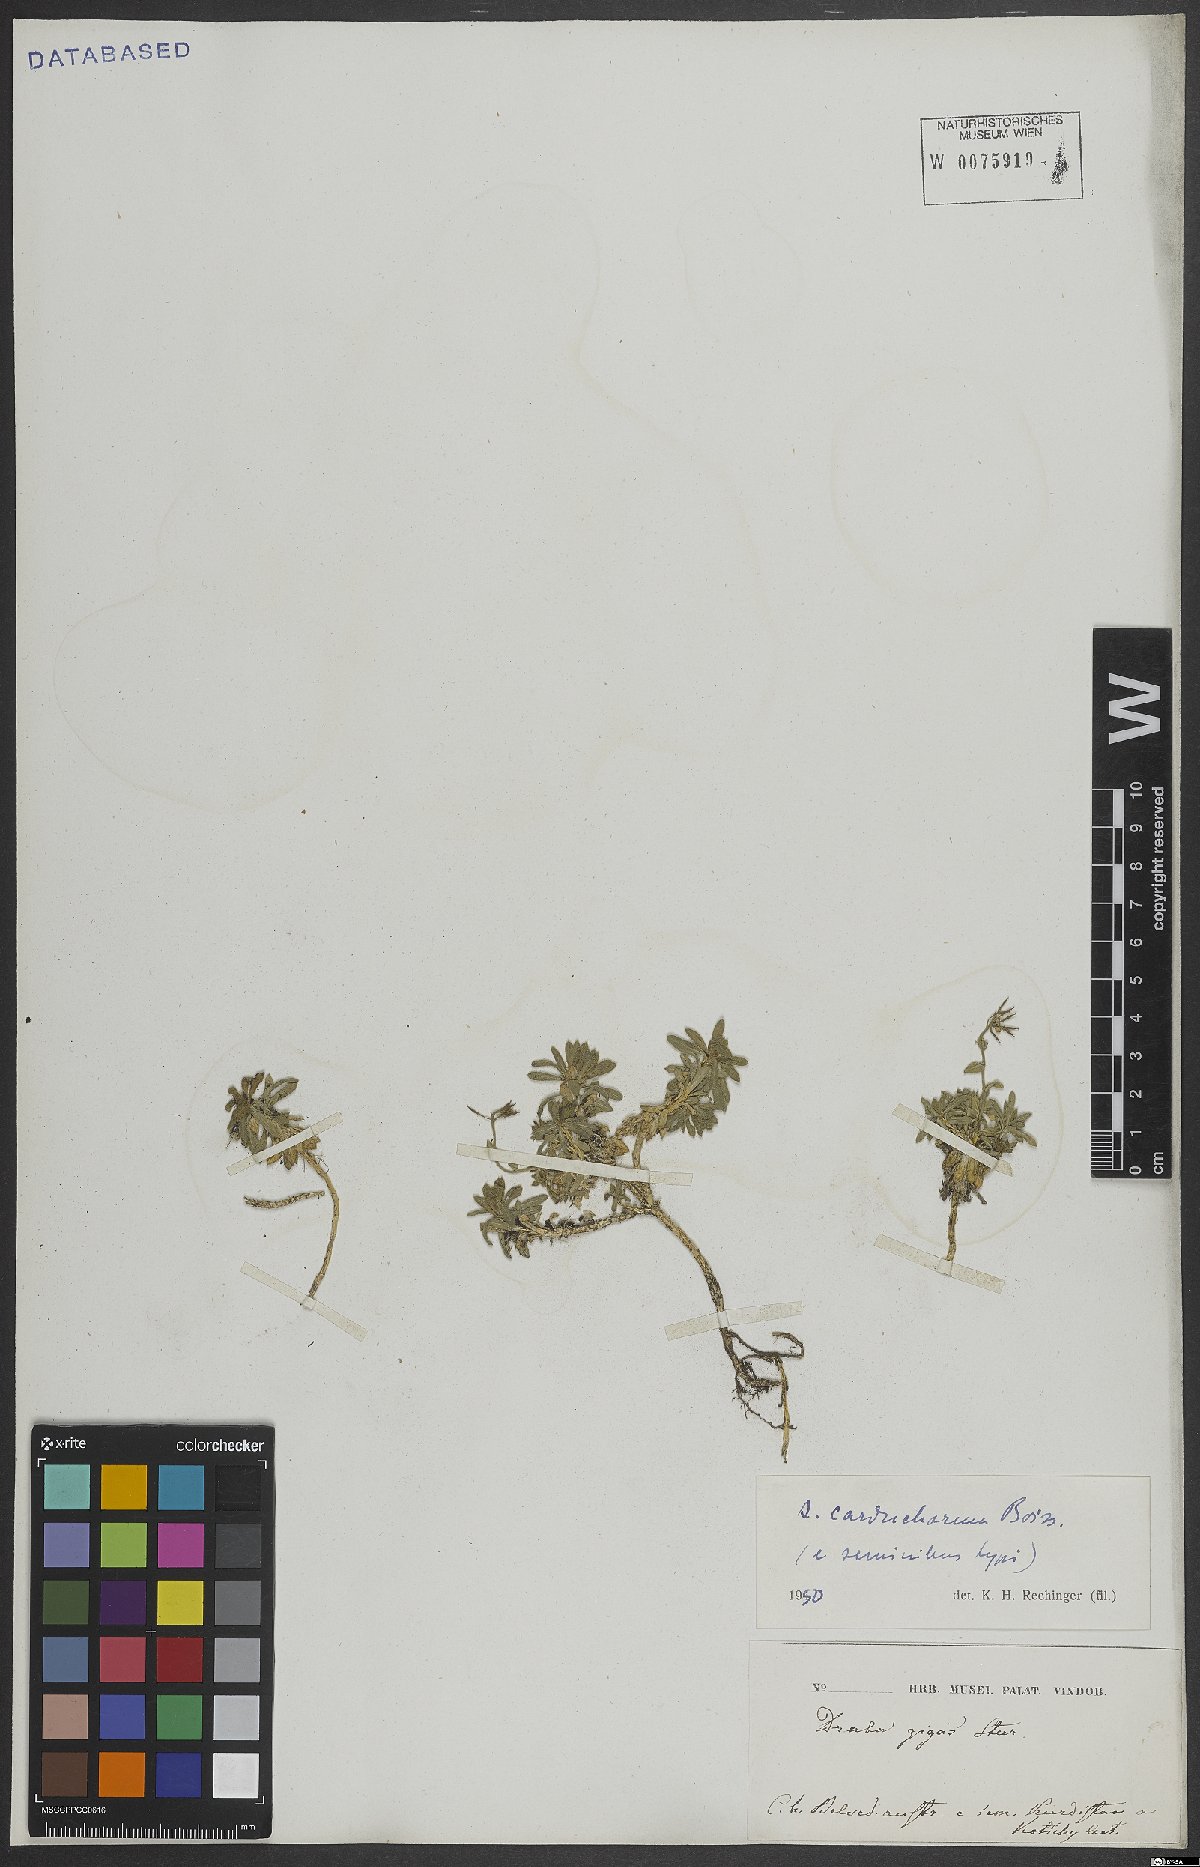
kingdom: Plantae
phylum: Tracheophyta
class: Magnoliopsida
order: Brassicales
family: Brassicaceae
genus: Arabis
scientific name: Arabis carduchorum
